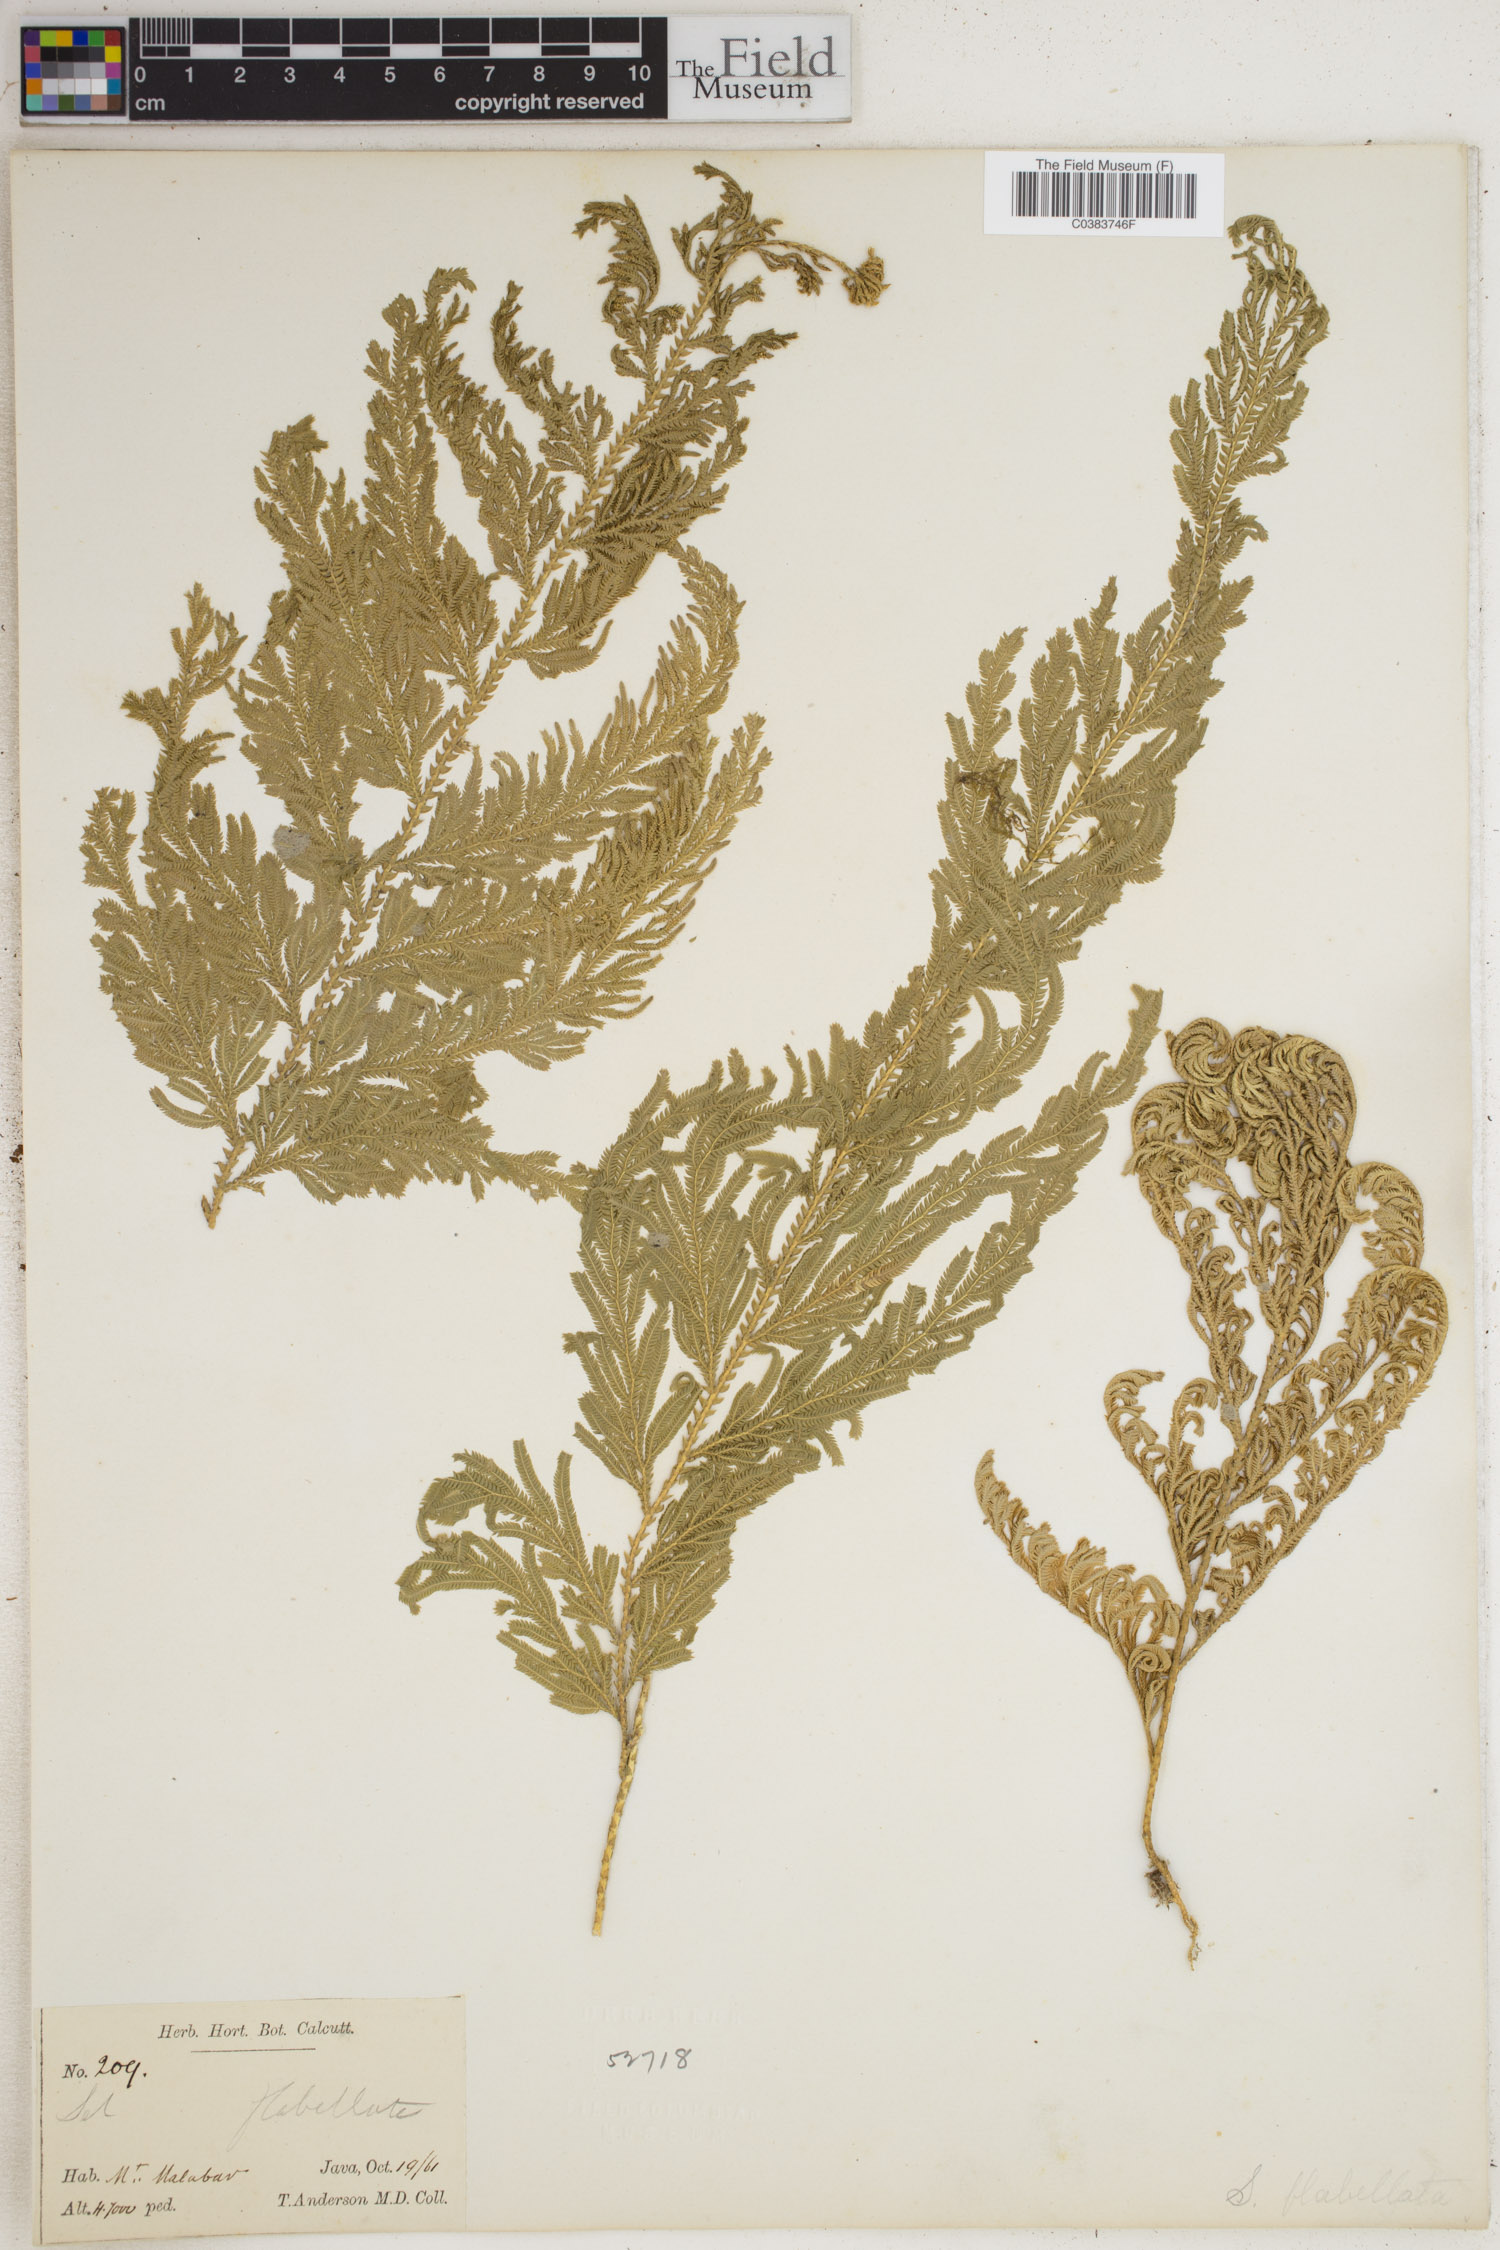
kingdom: Plantae
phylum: Tracheophyta
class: Lycopodiopsida
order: Selaginellales
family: Selaginellaceae
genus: Selaginella
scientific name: Selaginella flabellata
